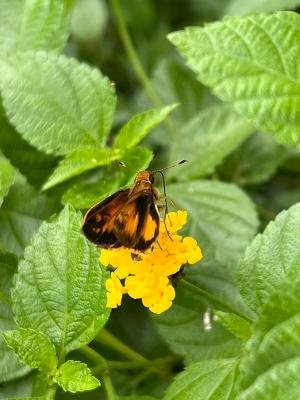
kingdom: Animalia
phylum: Arthropoda
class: Insecta
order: Lepidoptera
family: Hesperiidae
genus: Lon
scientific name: Lon zabulon
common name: Zabulon Skipper
